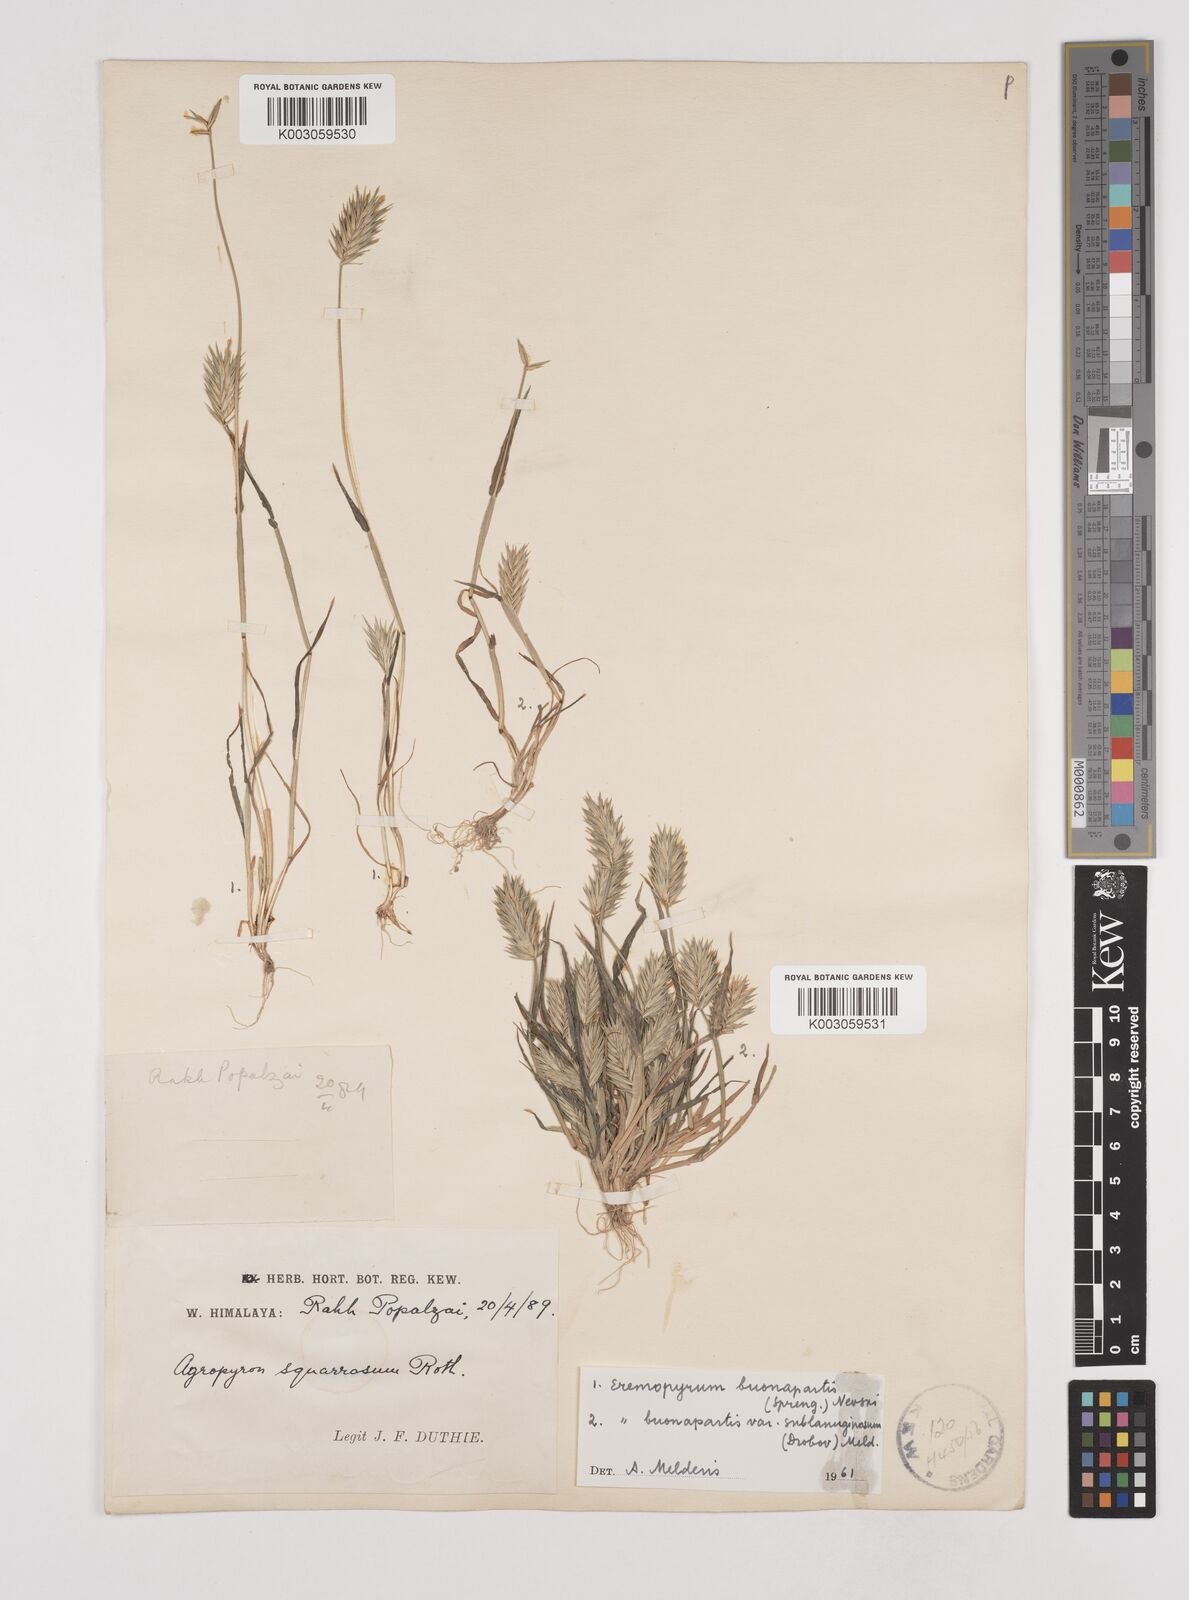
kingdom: Plantae
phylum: Tracheophyta
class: Liliopsida
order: Poales
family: Poaceae
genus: Eremopyrum
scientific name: Eremopyrum bonaepartis
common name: Tapertip false wheatgrass
